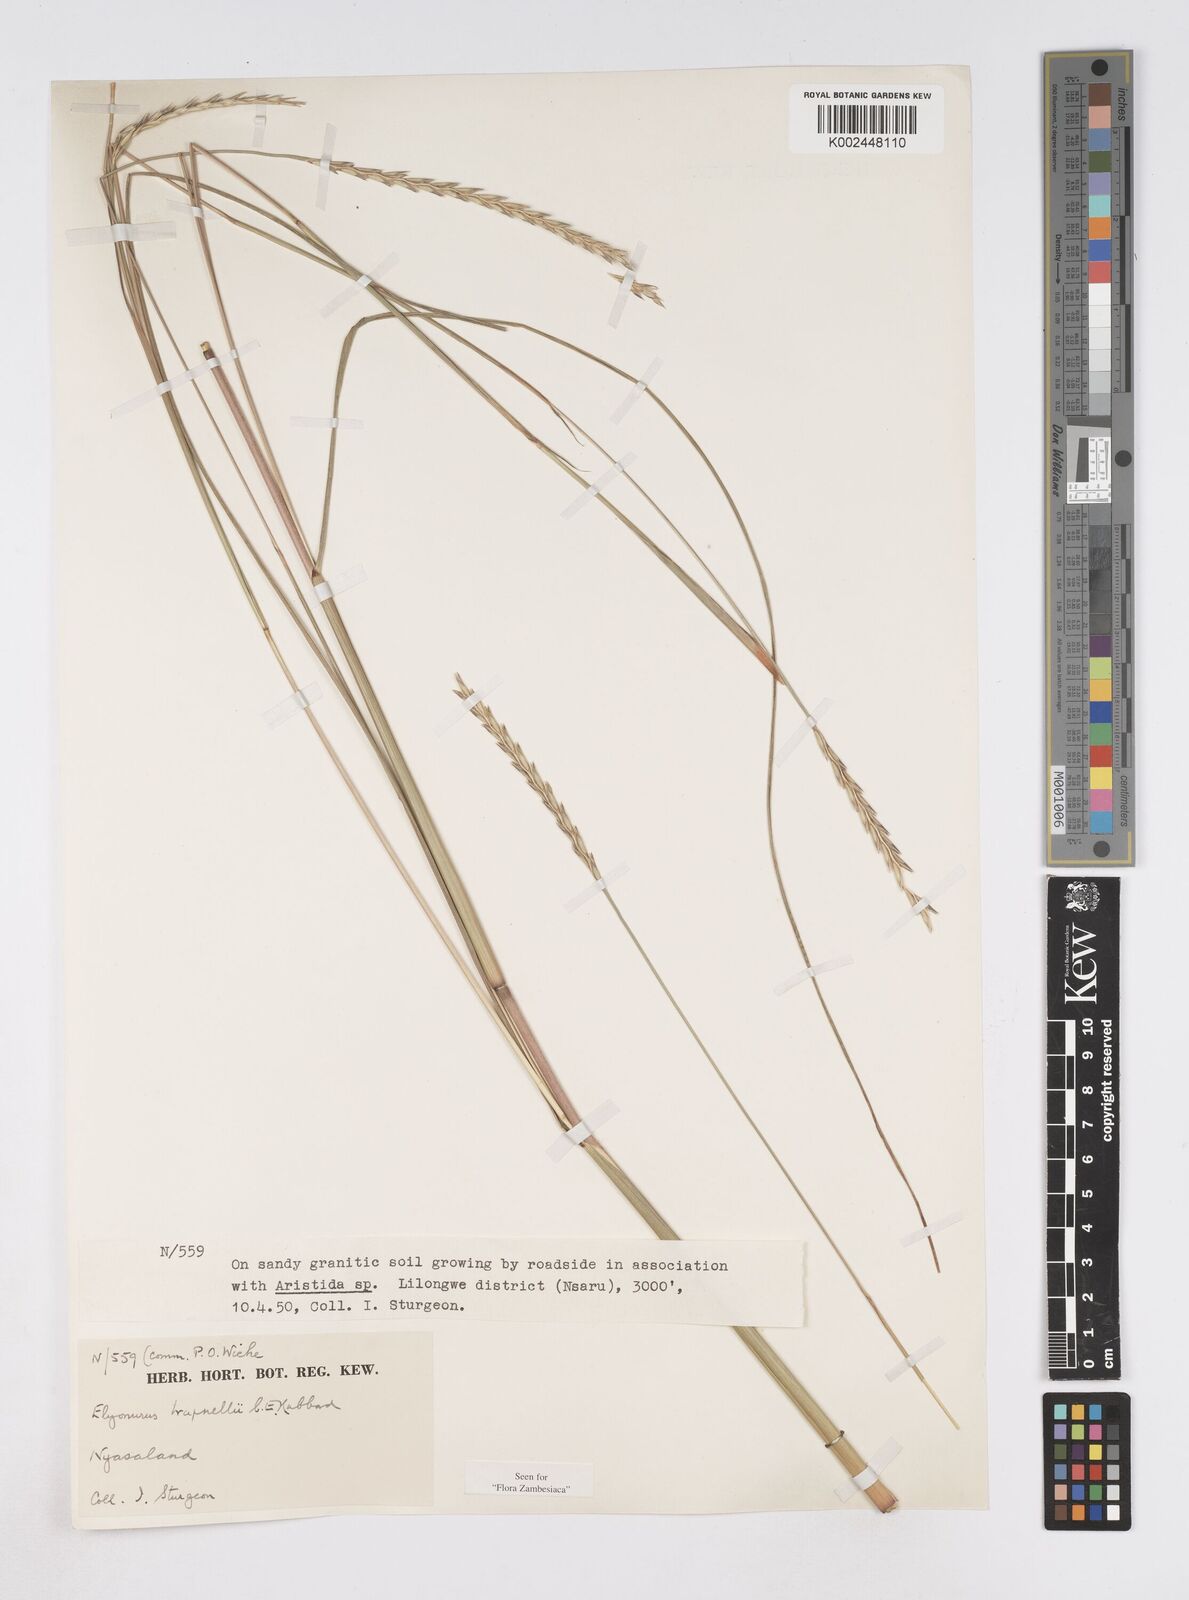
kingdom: Plantae
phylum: Tracheophyta
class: Liliopsida
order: Poales
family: Poaceae
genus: Elionurus
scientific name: Elionurus
